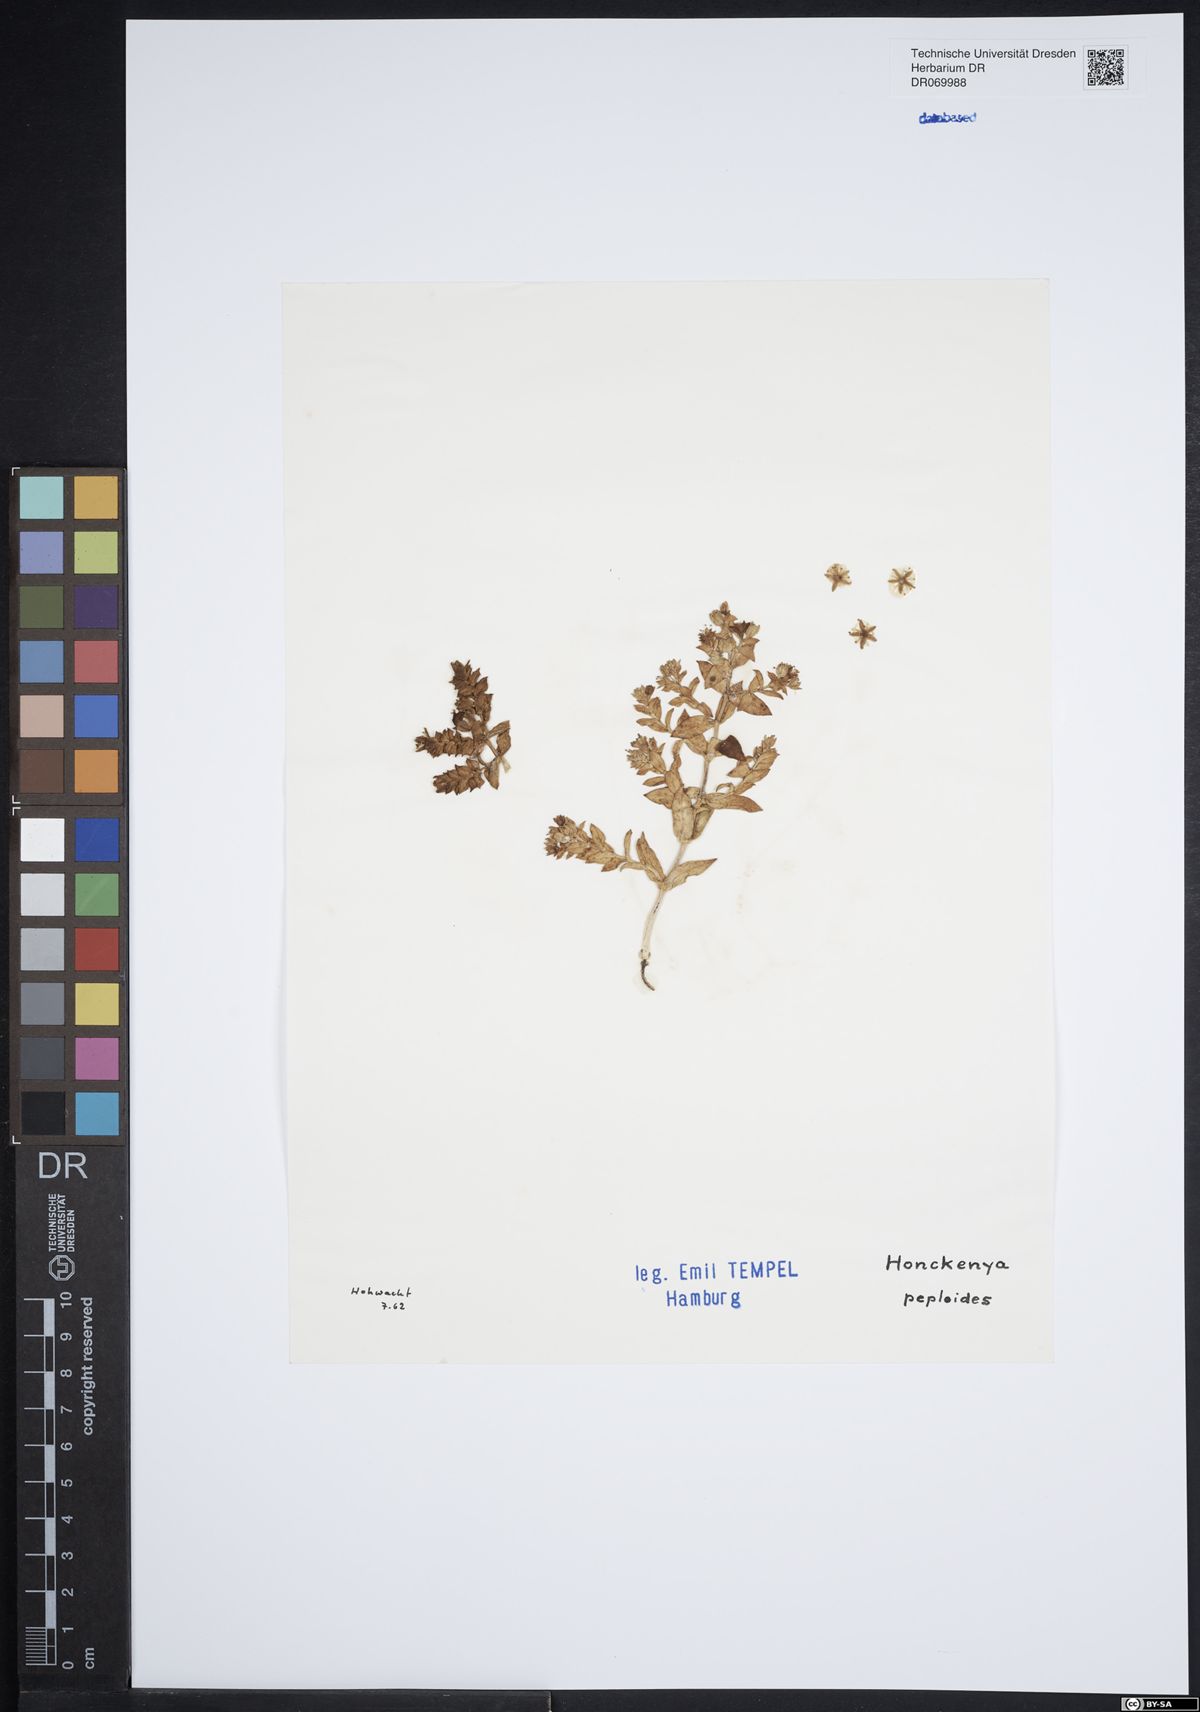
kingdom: Plantae
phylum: Tracheophyta
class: Magnoliopsida
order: Caryophyllales
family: Caryophyllaceae
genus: Honckenya
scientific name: Honckenya peploides
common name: Sea sandwort
